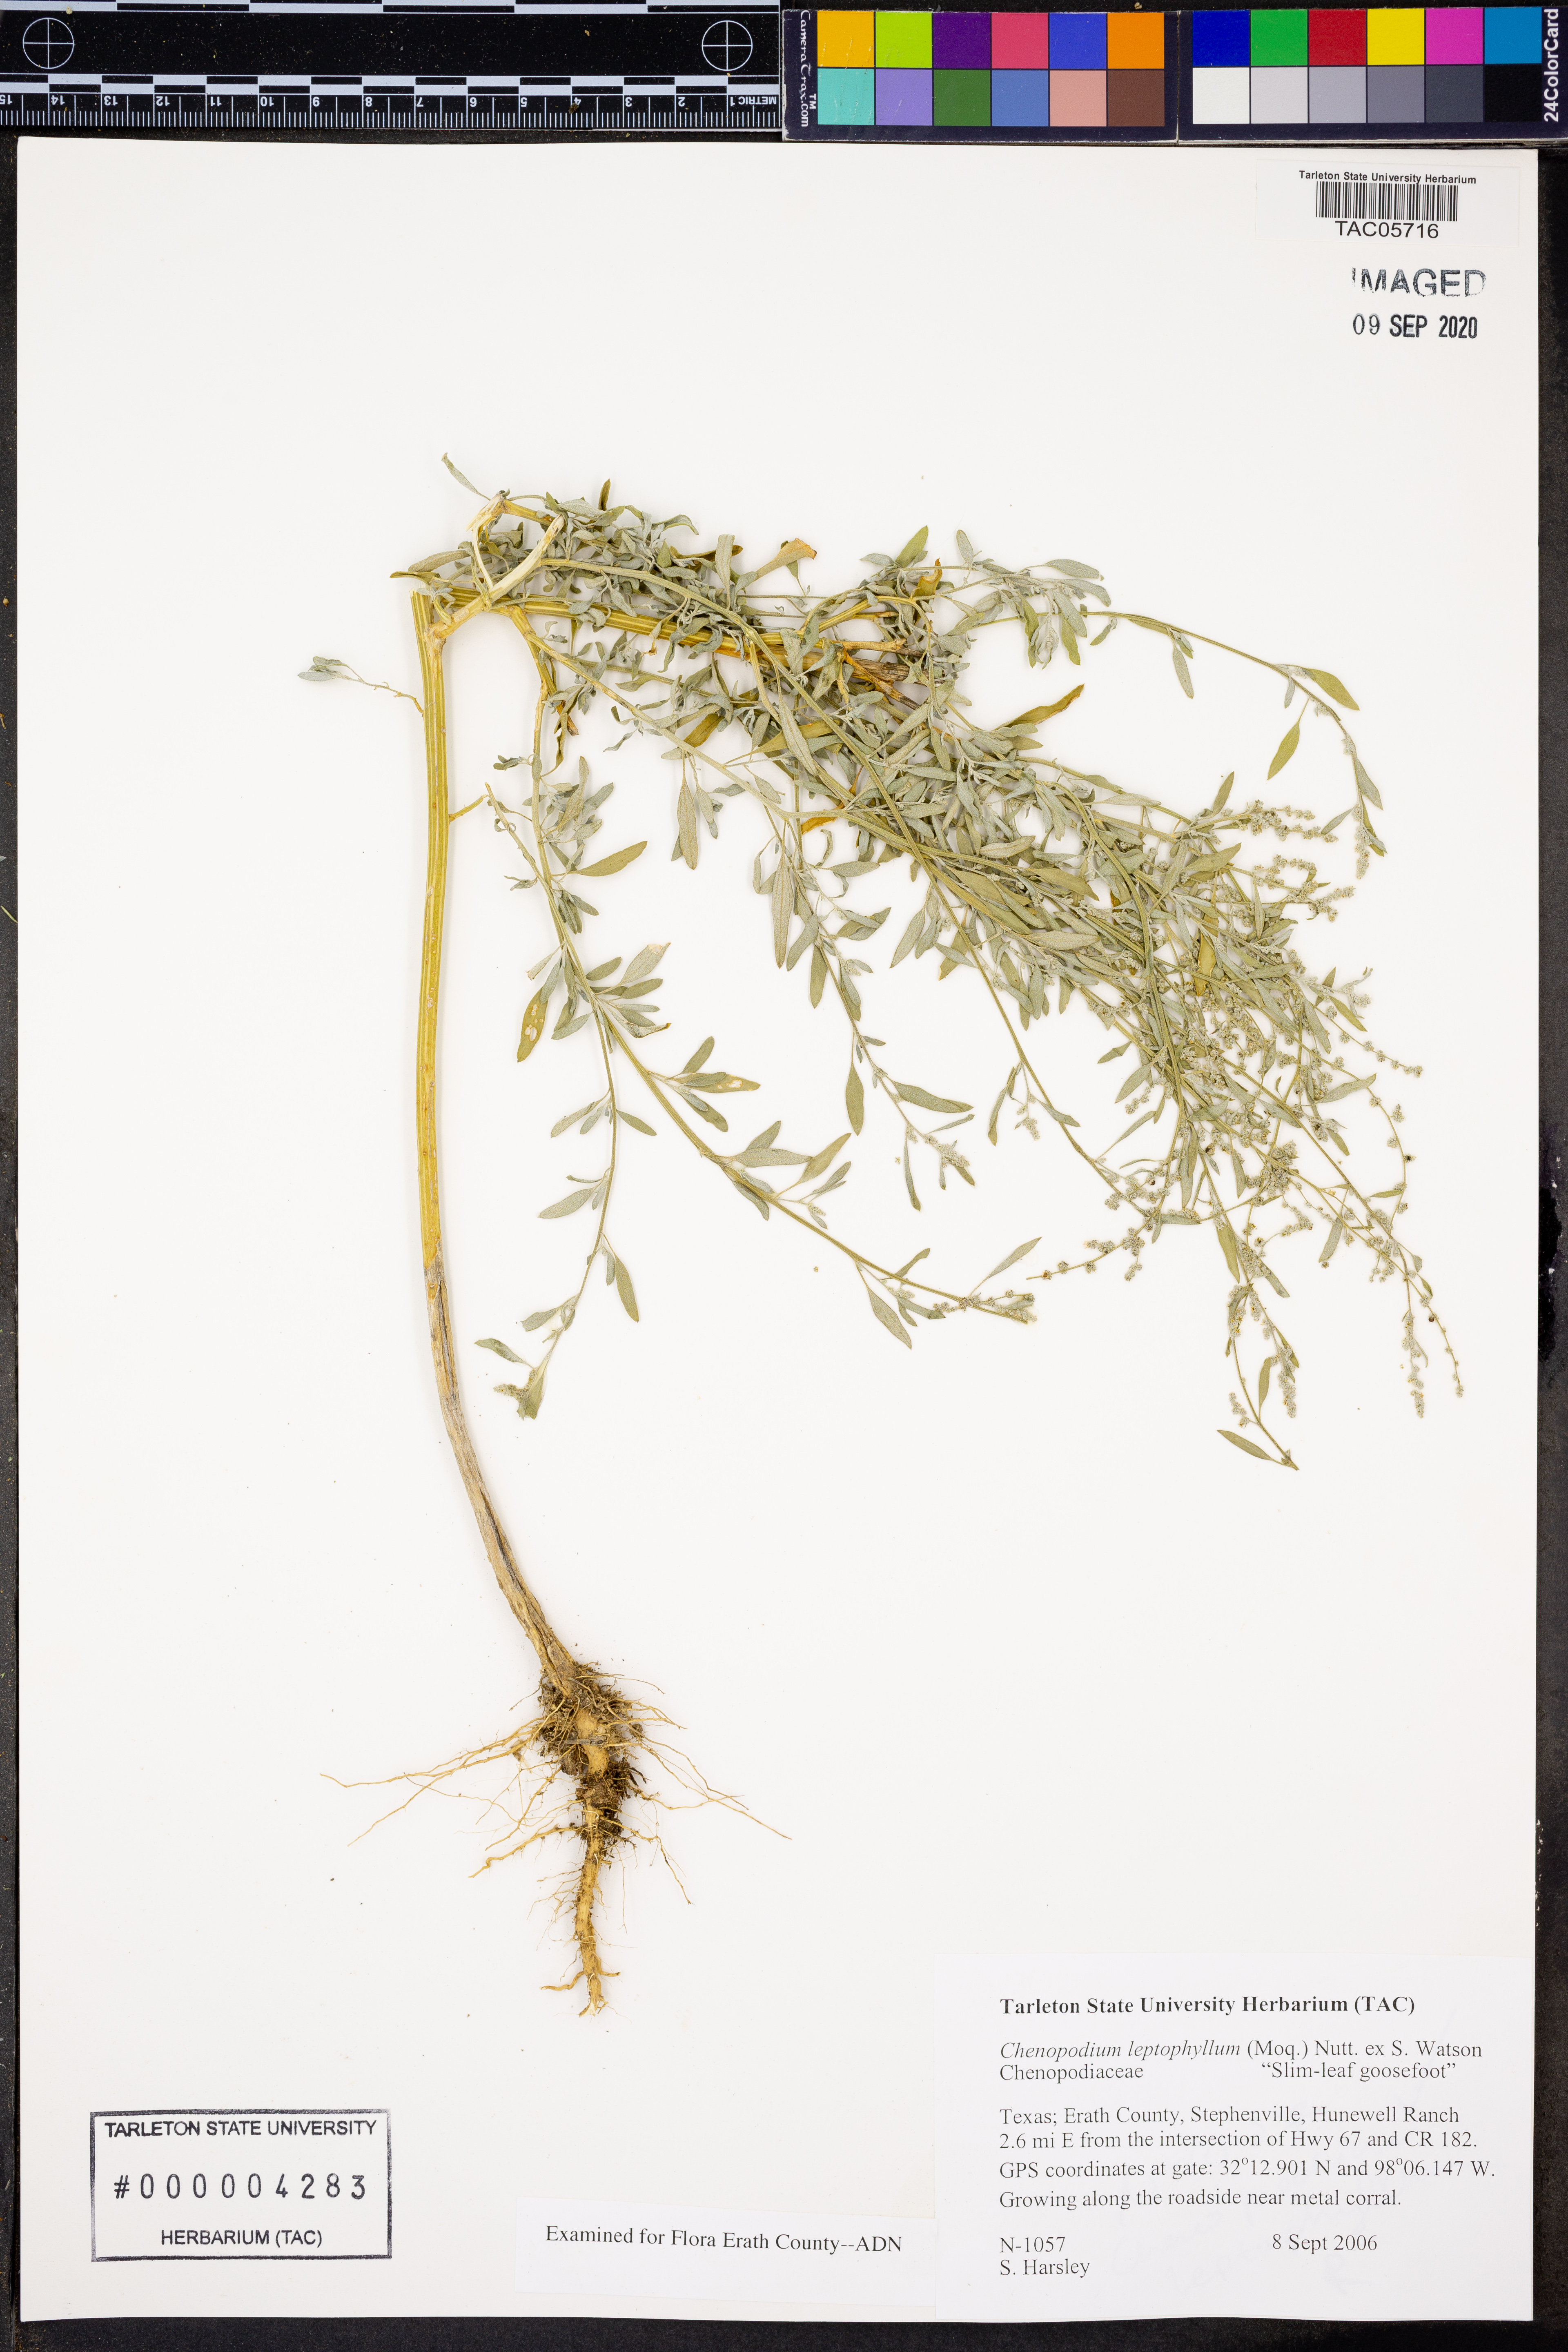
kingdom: Plantae
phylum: Tracheophyta
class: Magnoliopsida
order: Caryophyllales
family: Amaranthaceae
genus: Chenopodium
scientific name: Chenopodium leptophyllum
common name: Narrow-leaf goosefoot
